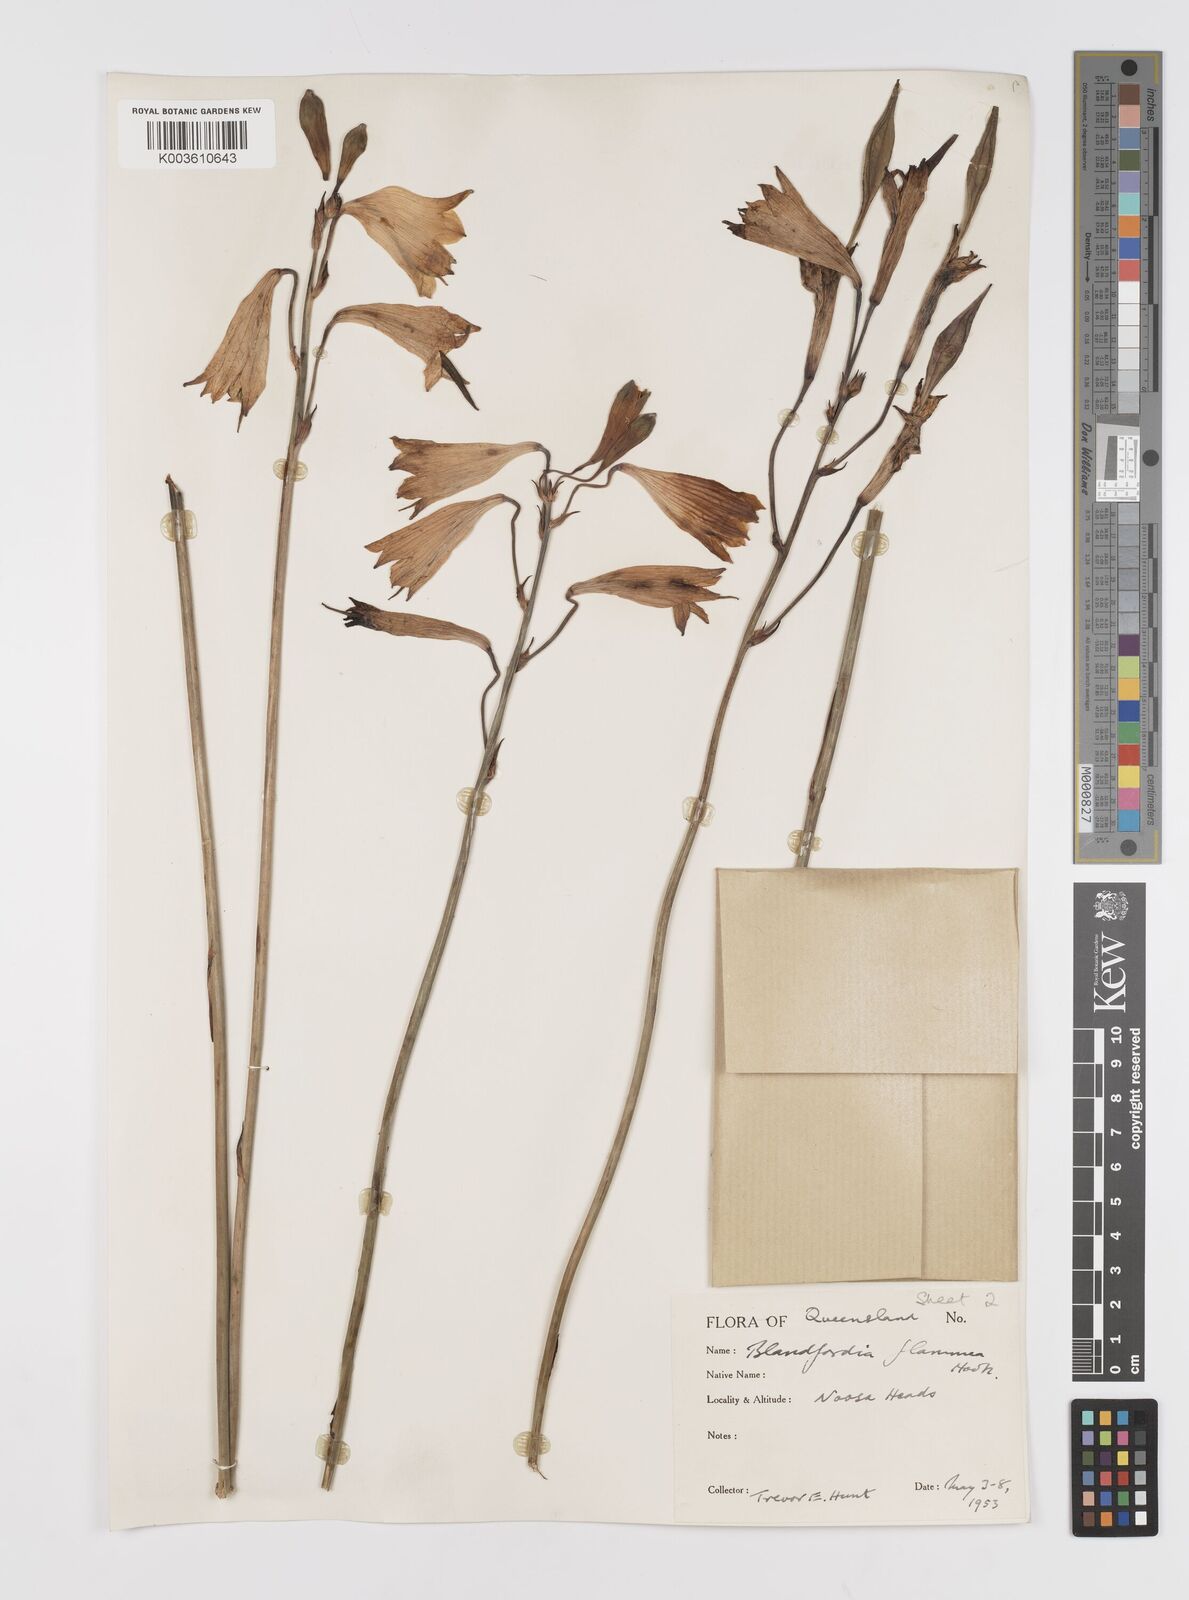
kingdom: Plantae
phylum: Tracheophyta
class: Liliopsida
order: Asparagales
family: Blandfordiaceae
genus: Blandfordia
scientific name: Blandfordia punicea
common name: Tasmanian christmas-bell
